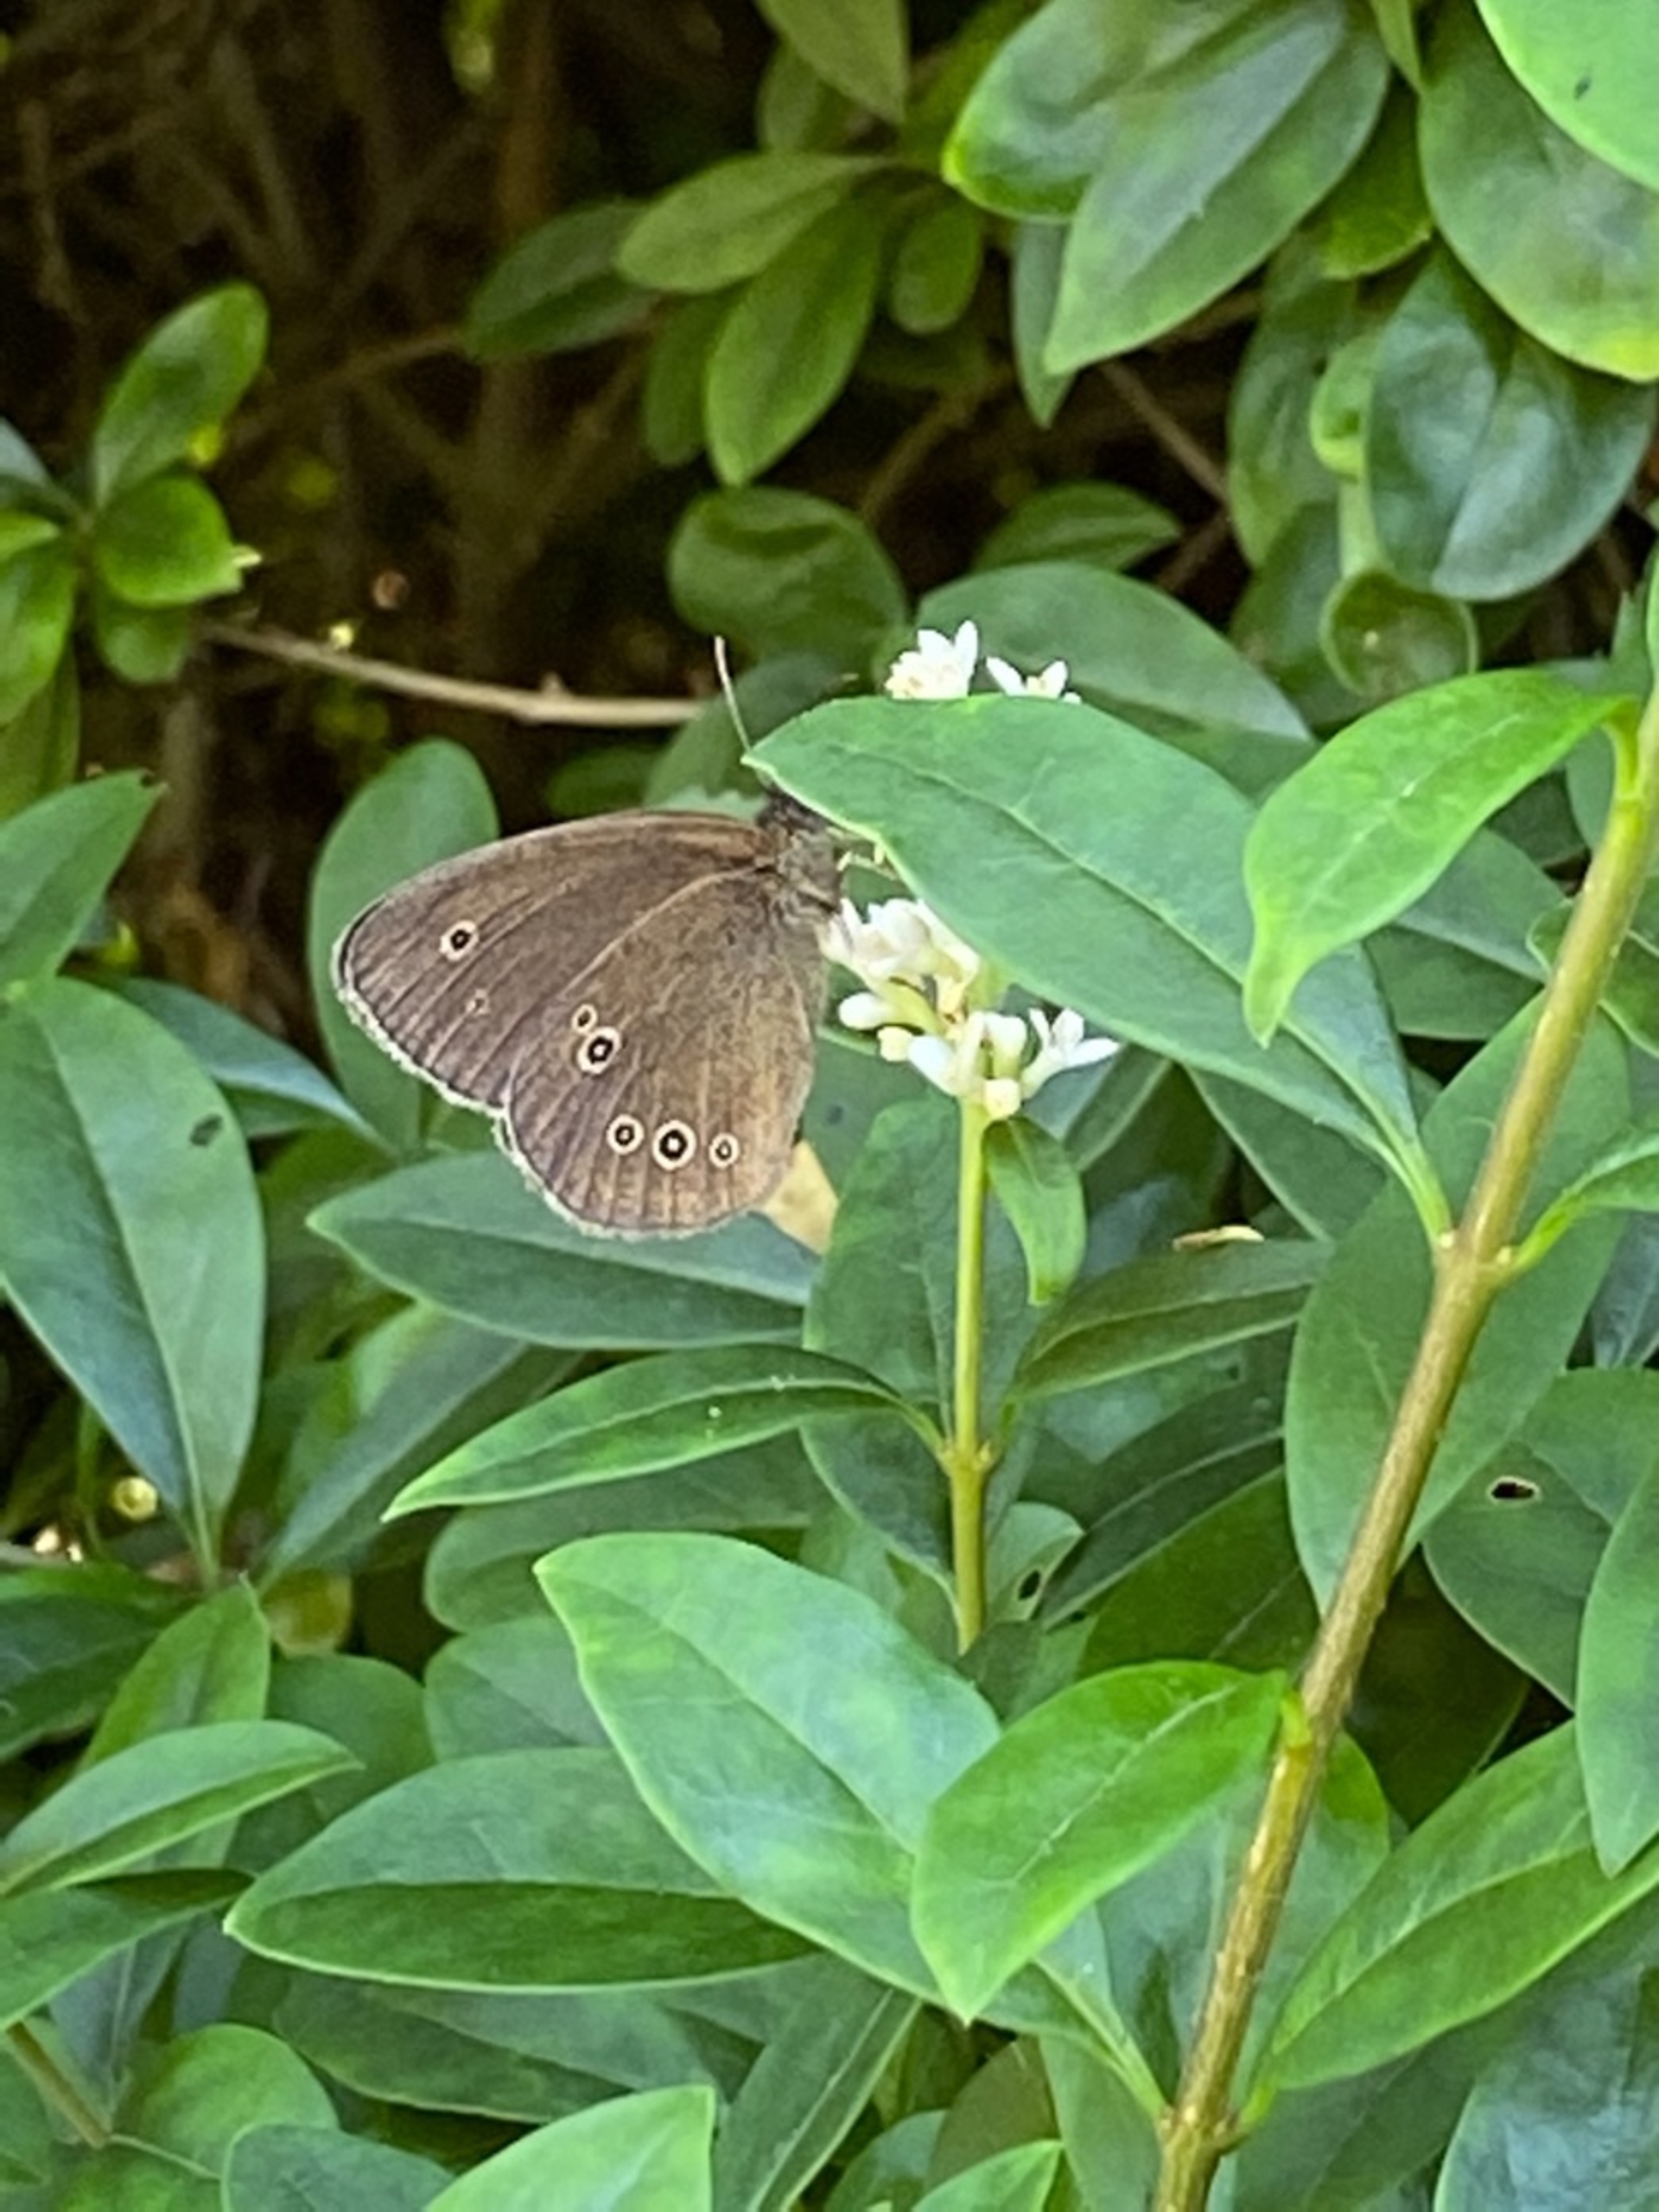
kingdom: Animalia
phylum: Arthropoda
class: Insecta
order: Lepidoptera
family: Nymphalidae
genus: Aphantopus
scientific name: Aphantopus hyperantus
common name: Engrandøje
